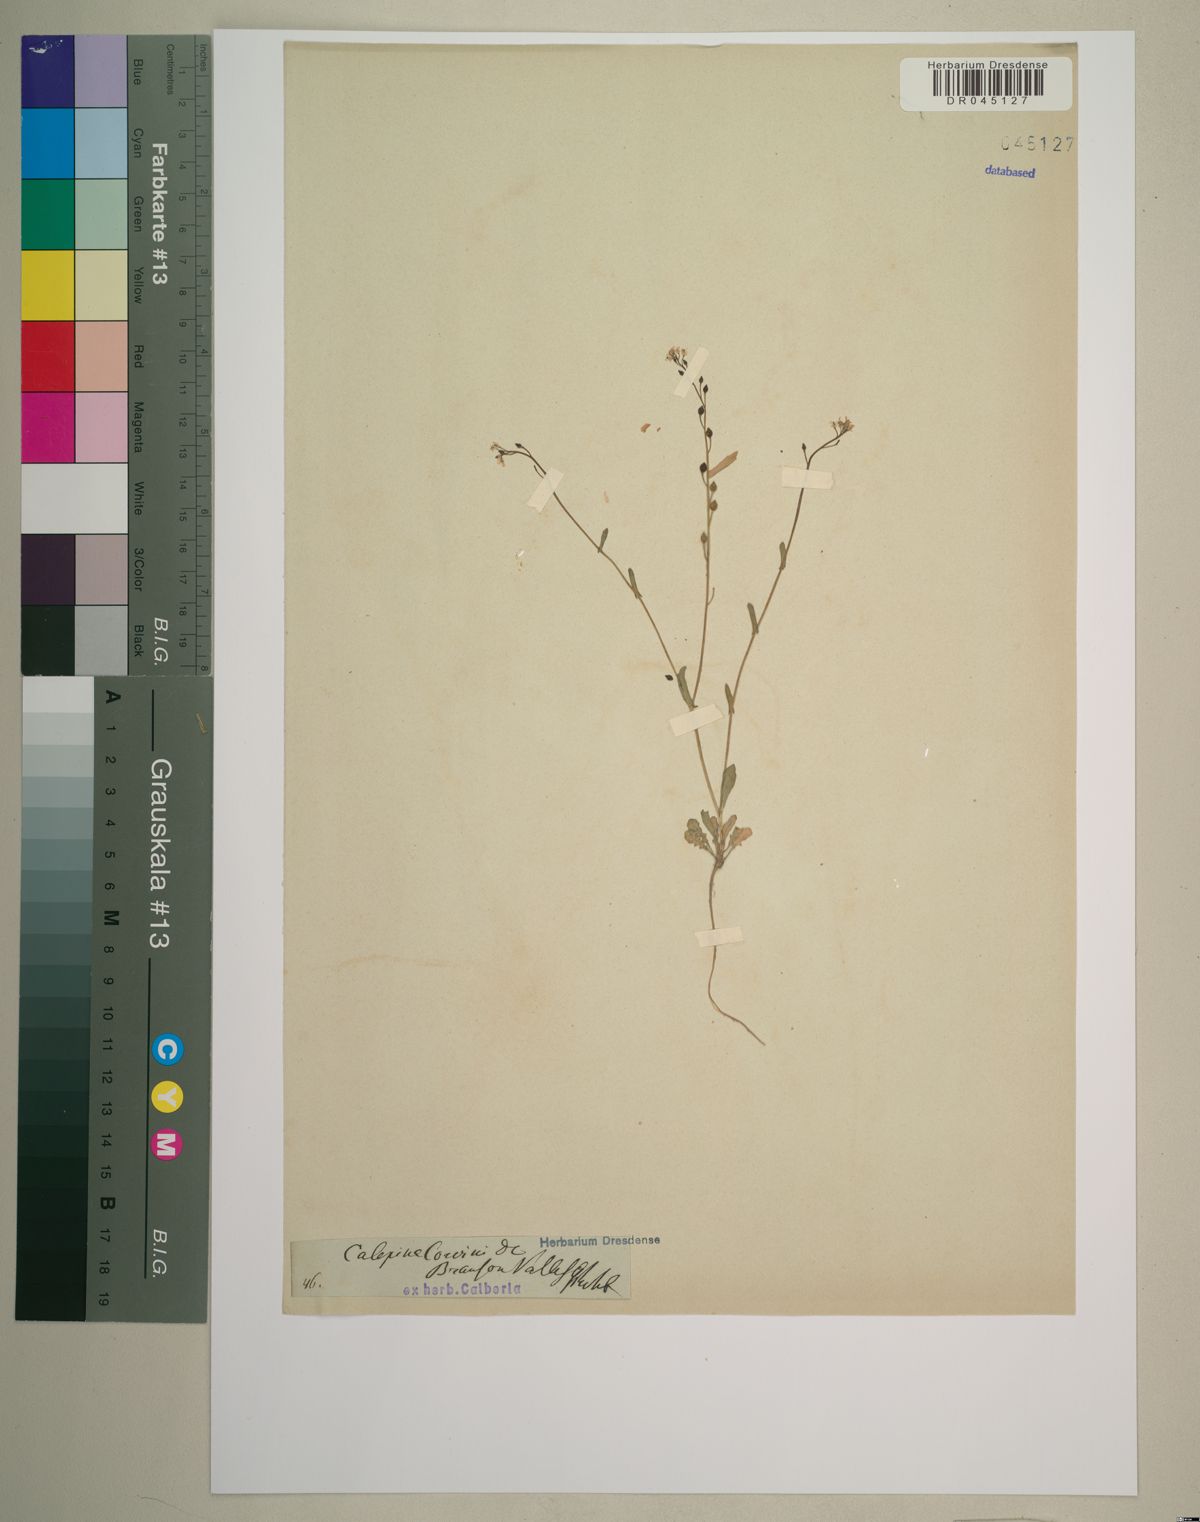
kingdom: Plantae
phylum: Tracheophyta
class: Magnoliopsida
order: Brassicales
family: Brassicaceae
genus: Calepina
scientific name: Calepina irregularis
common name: White ballmustard
